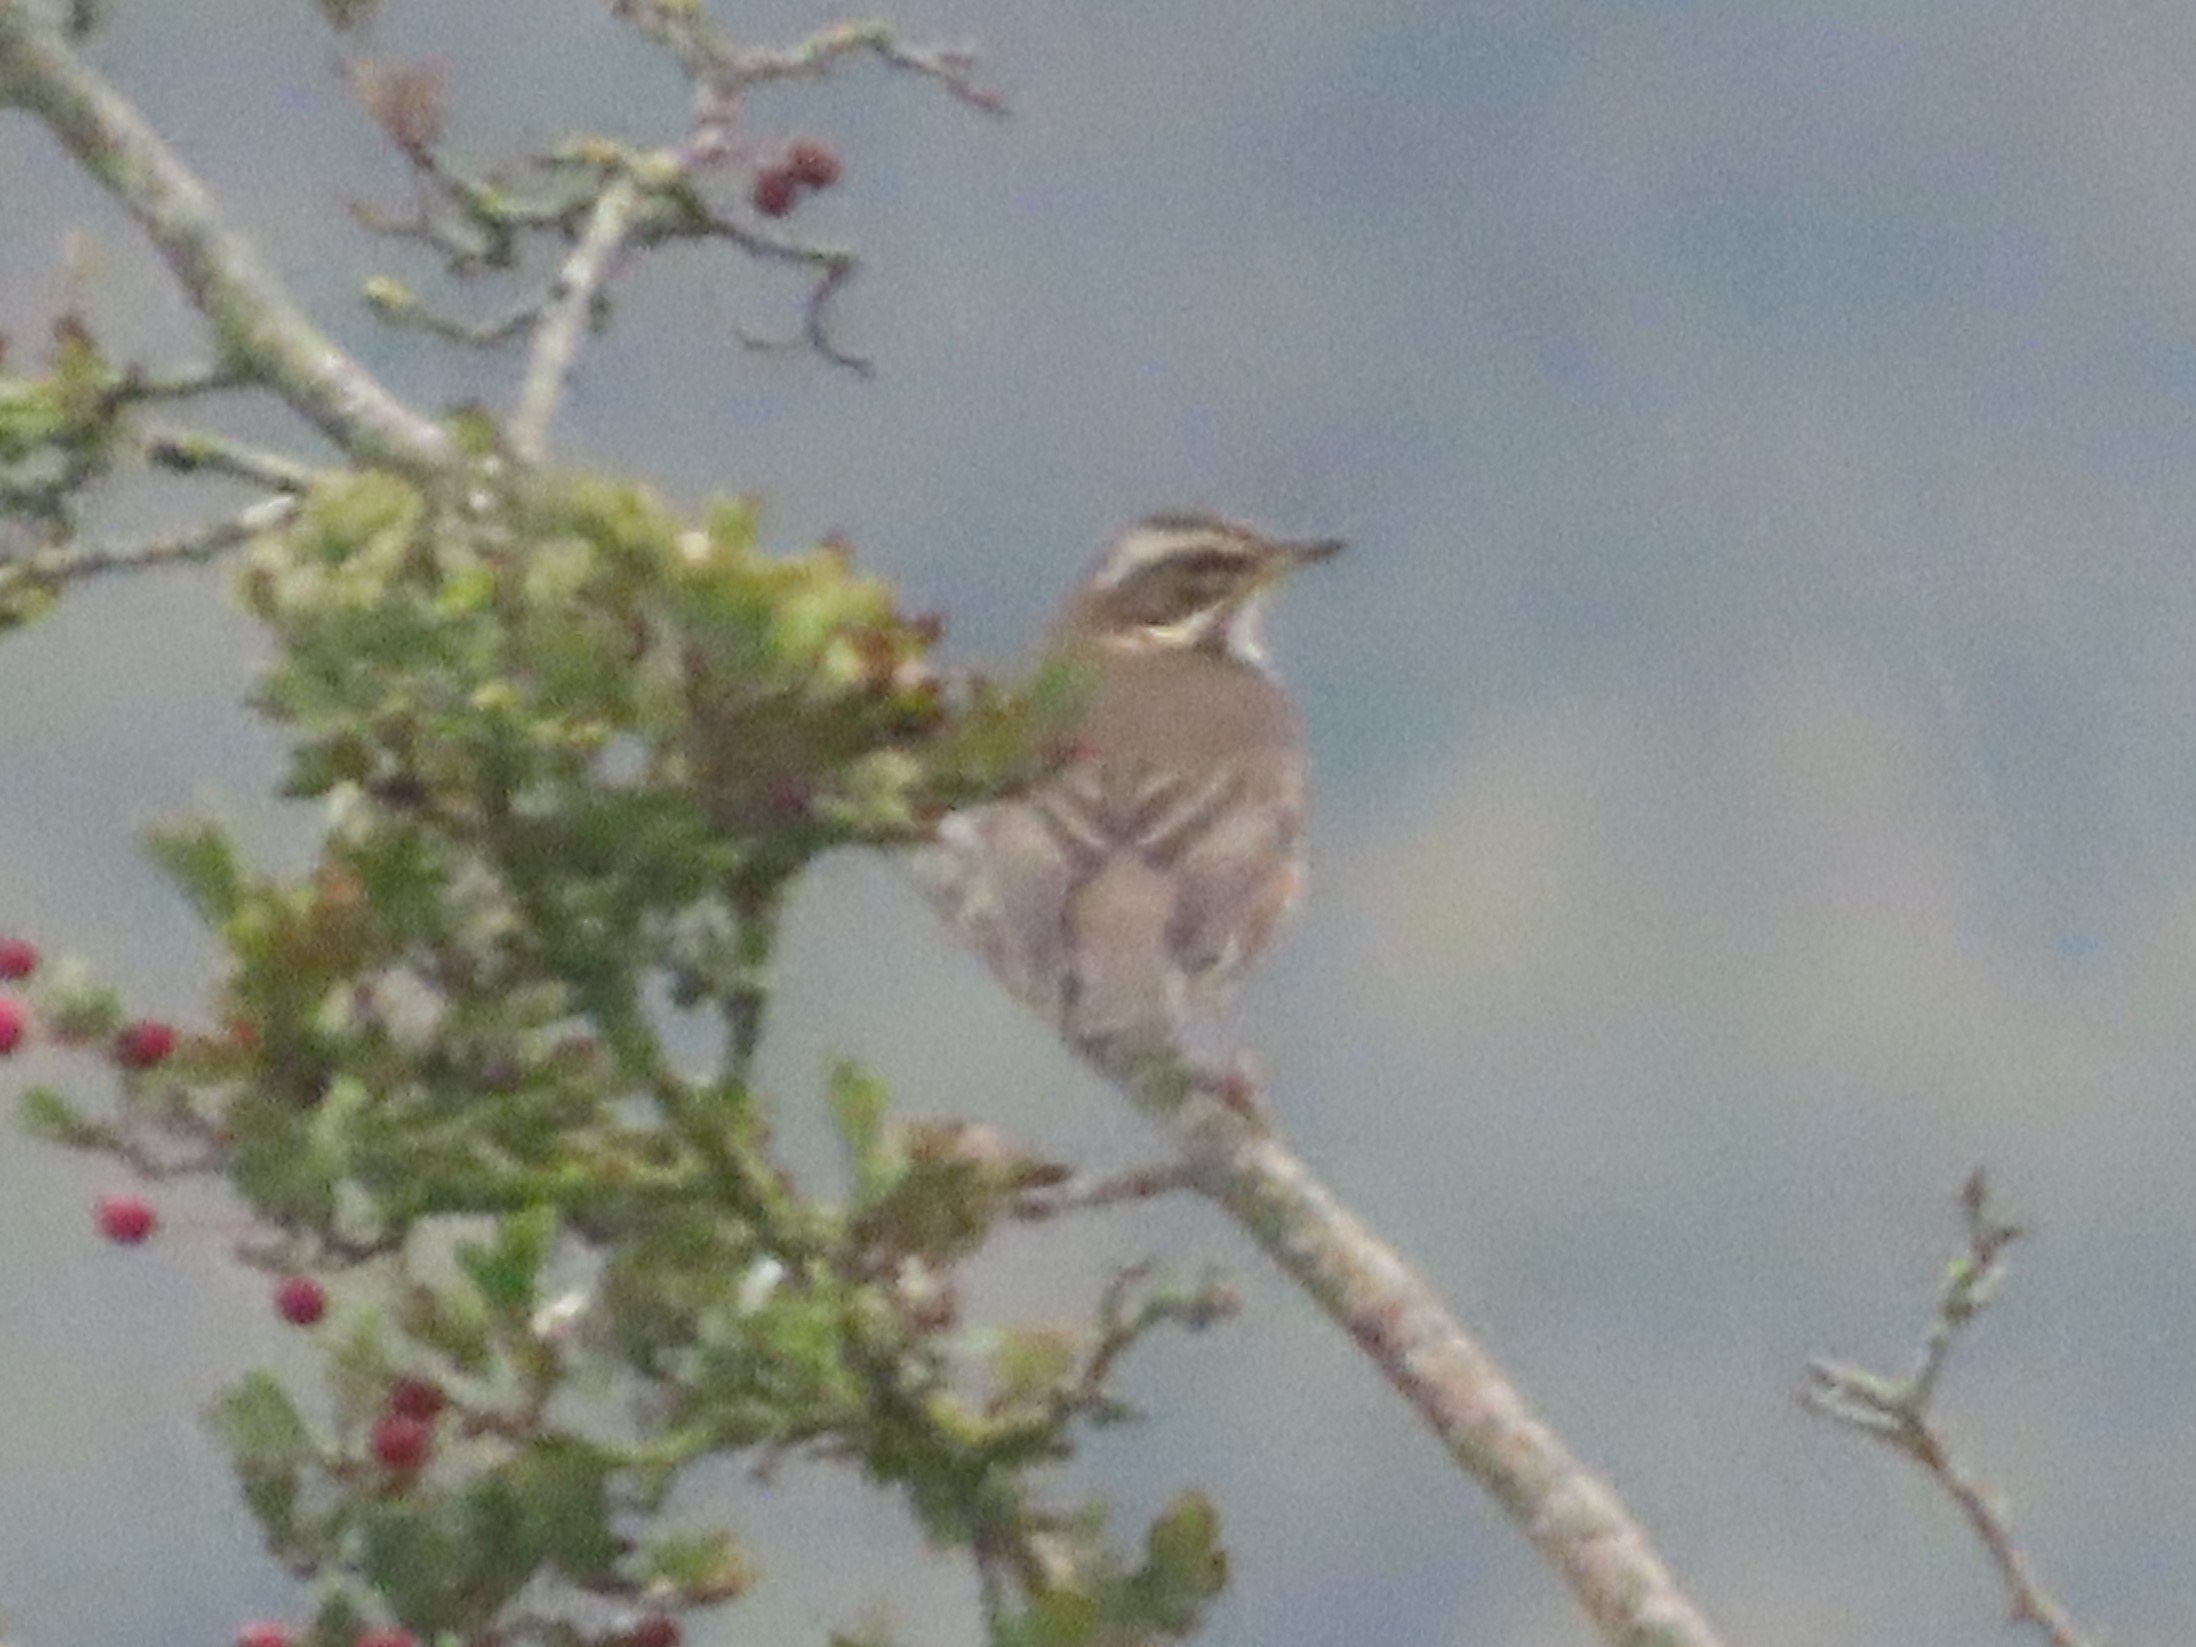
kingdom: Animalia
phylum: Chordata
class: Aves
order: Passeriformes
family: Turdidae
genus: Turdus
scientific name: Turdus iliacus
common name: Vindrossel
